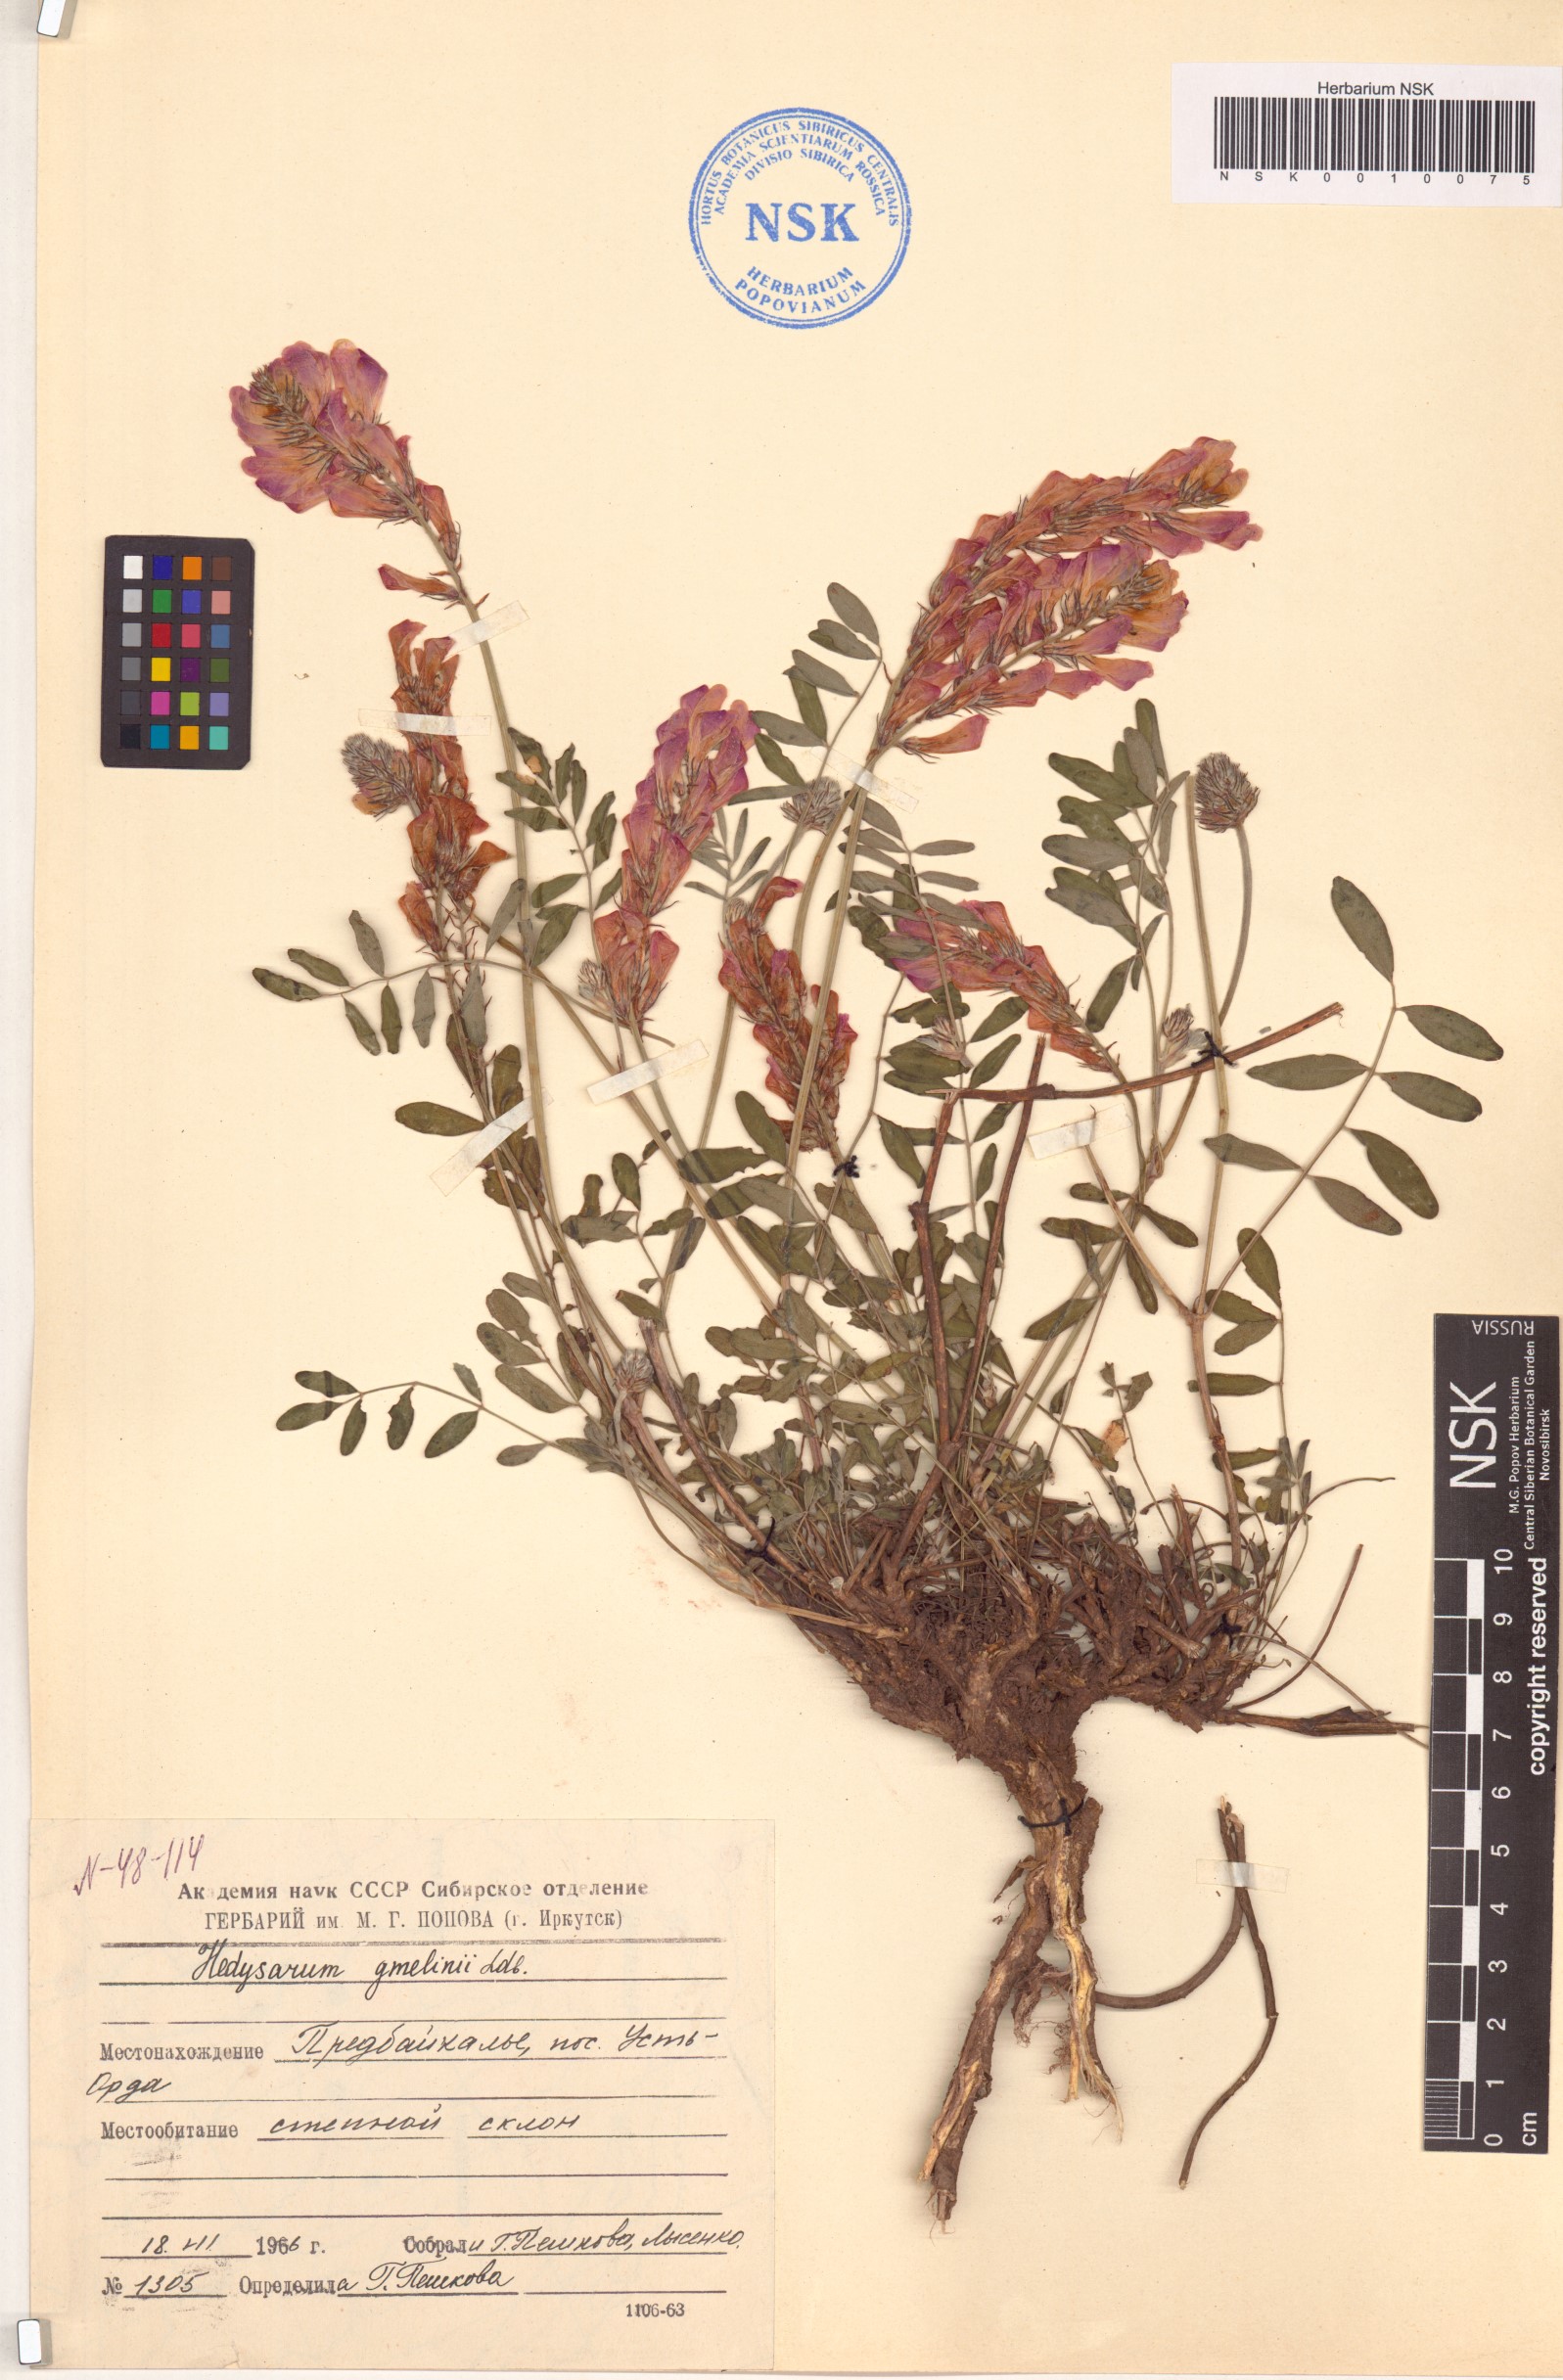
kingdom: Plantae
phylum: Tracheophyta
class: Magnoliopsida
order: Fabales
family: Fabaceae
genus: Hedysarum
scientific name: Hedysarum gmelinii
